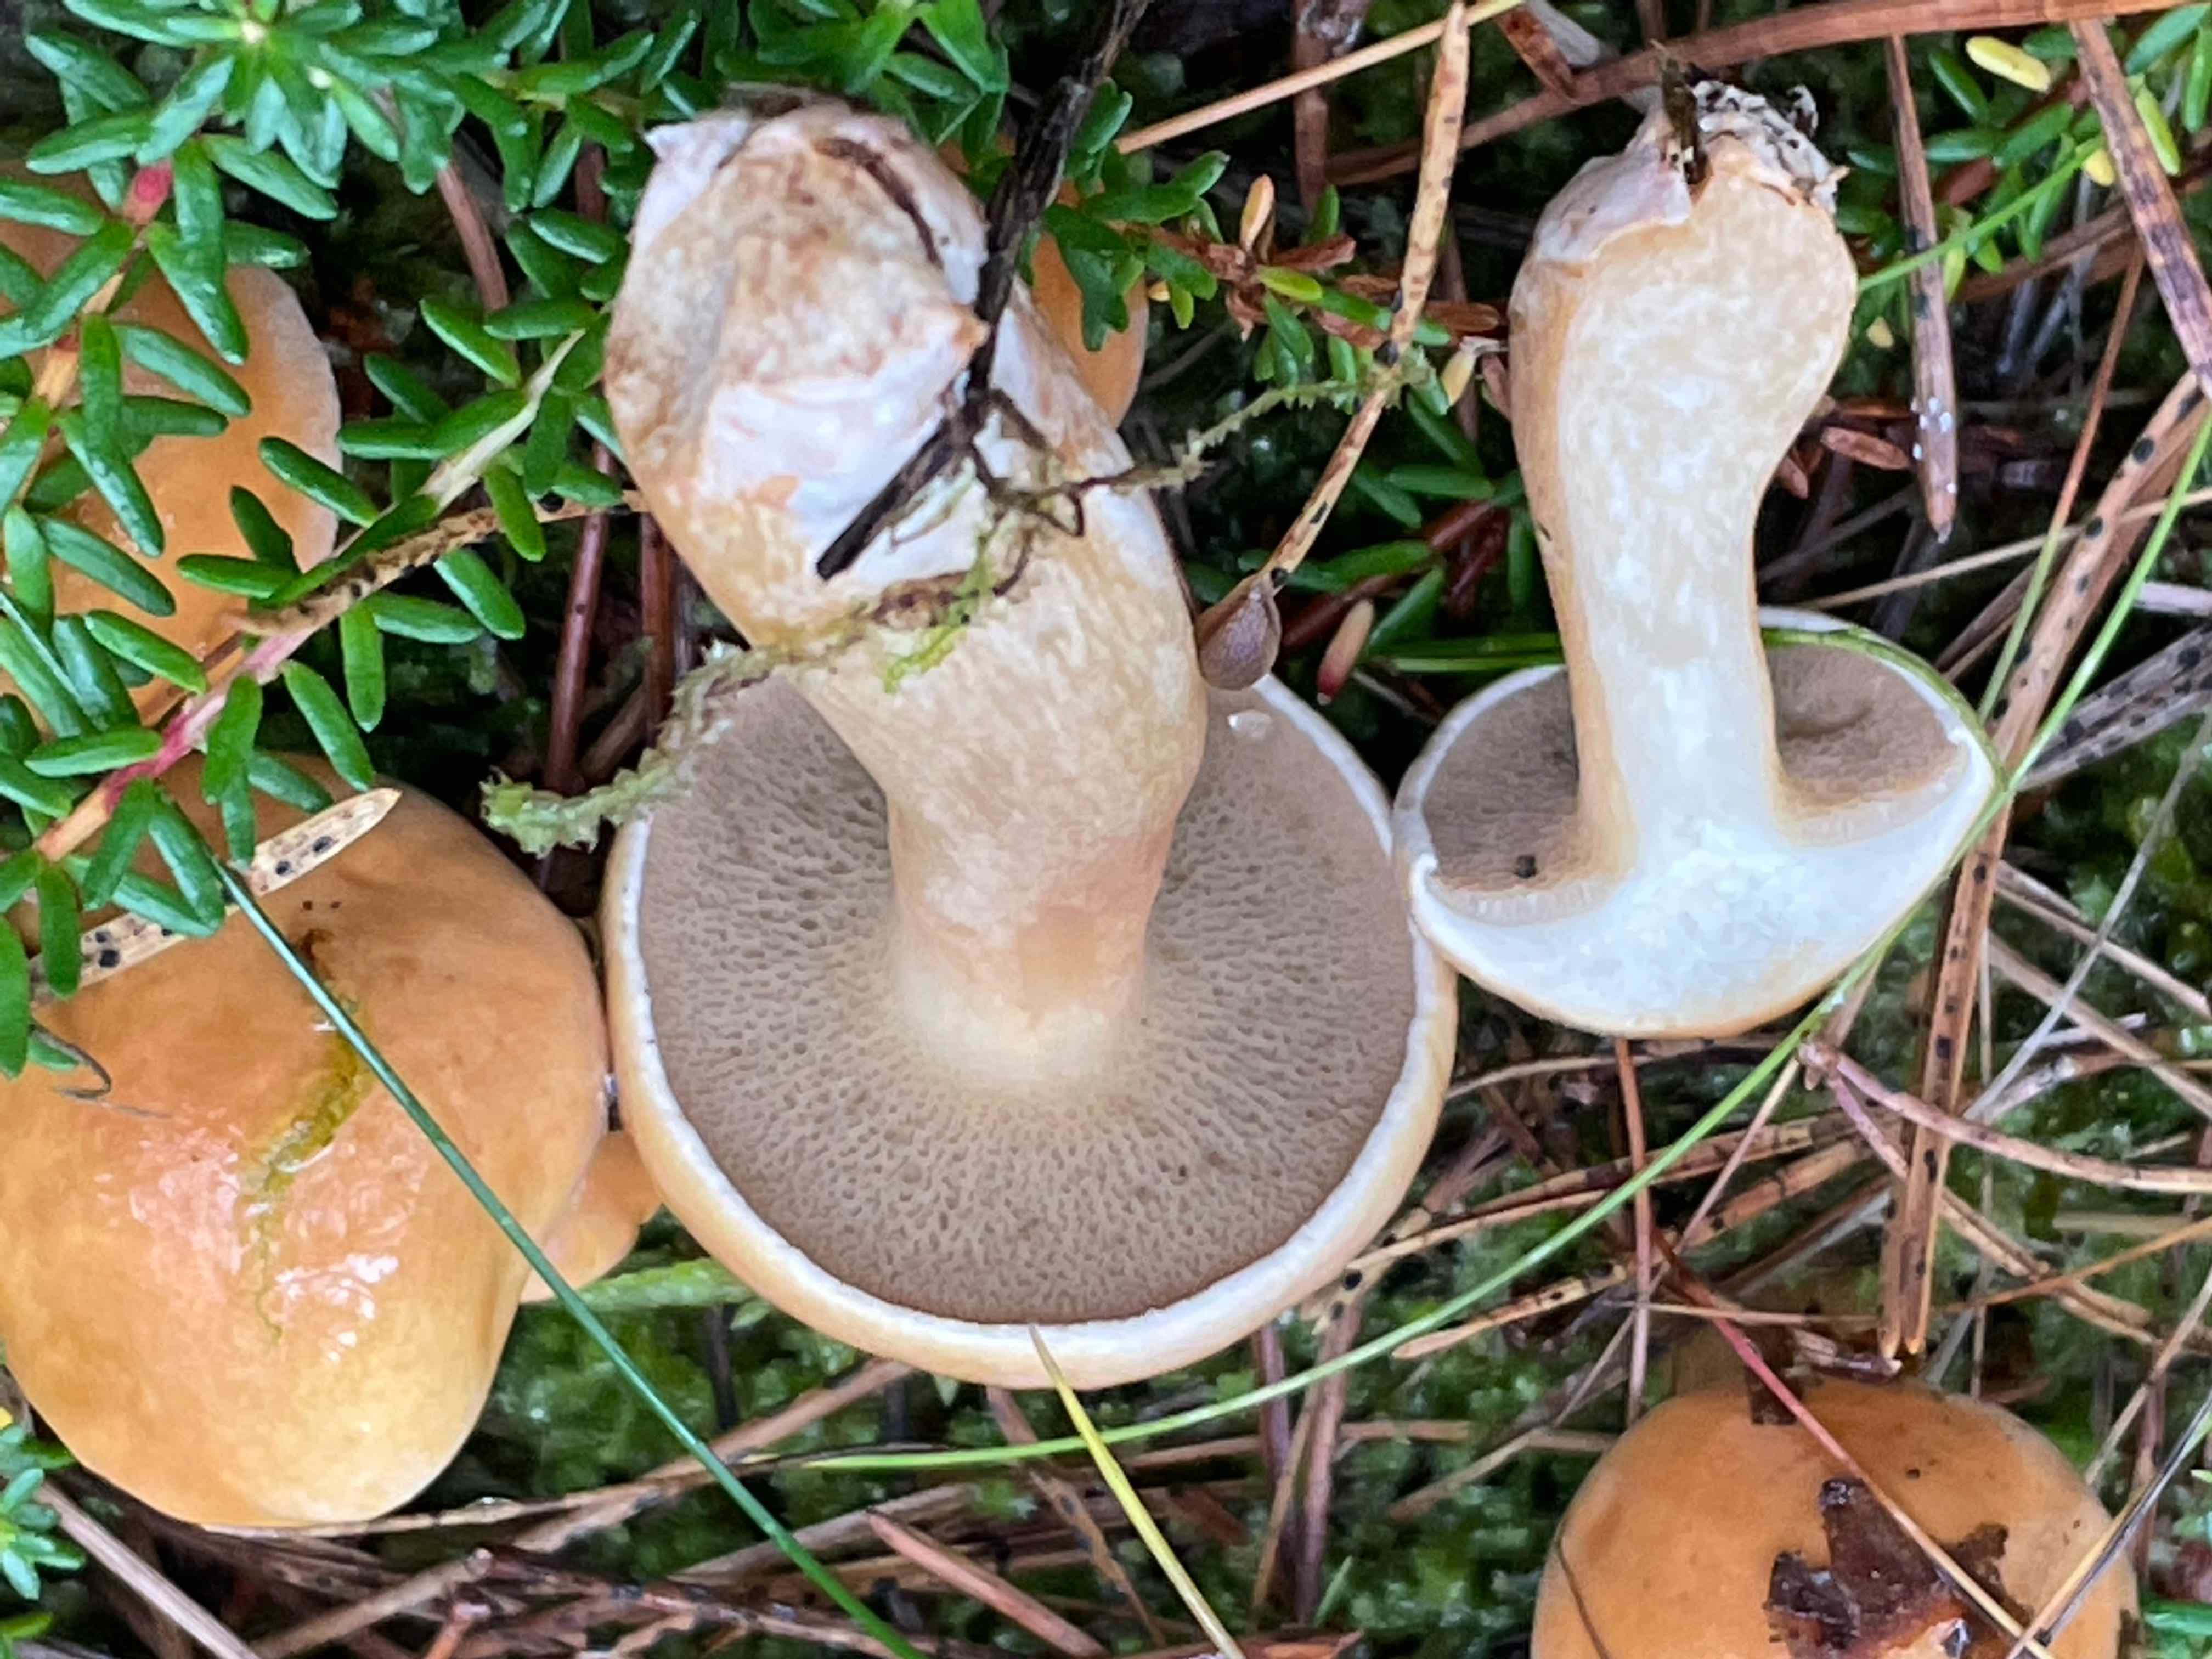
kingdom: Fungi
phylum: Basidiomycota
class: Agaricomycetes
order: Boletales
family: Suillaceae
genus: Suillus
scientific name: Suillus bovinus
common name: grovporet slimrørhat
